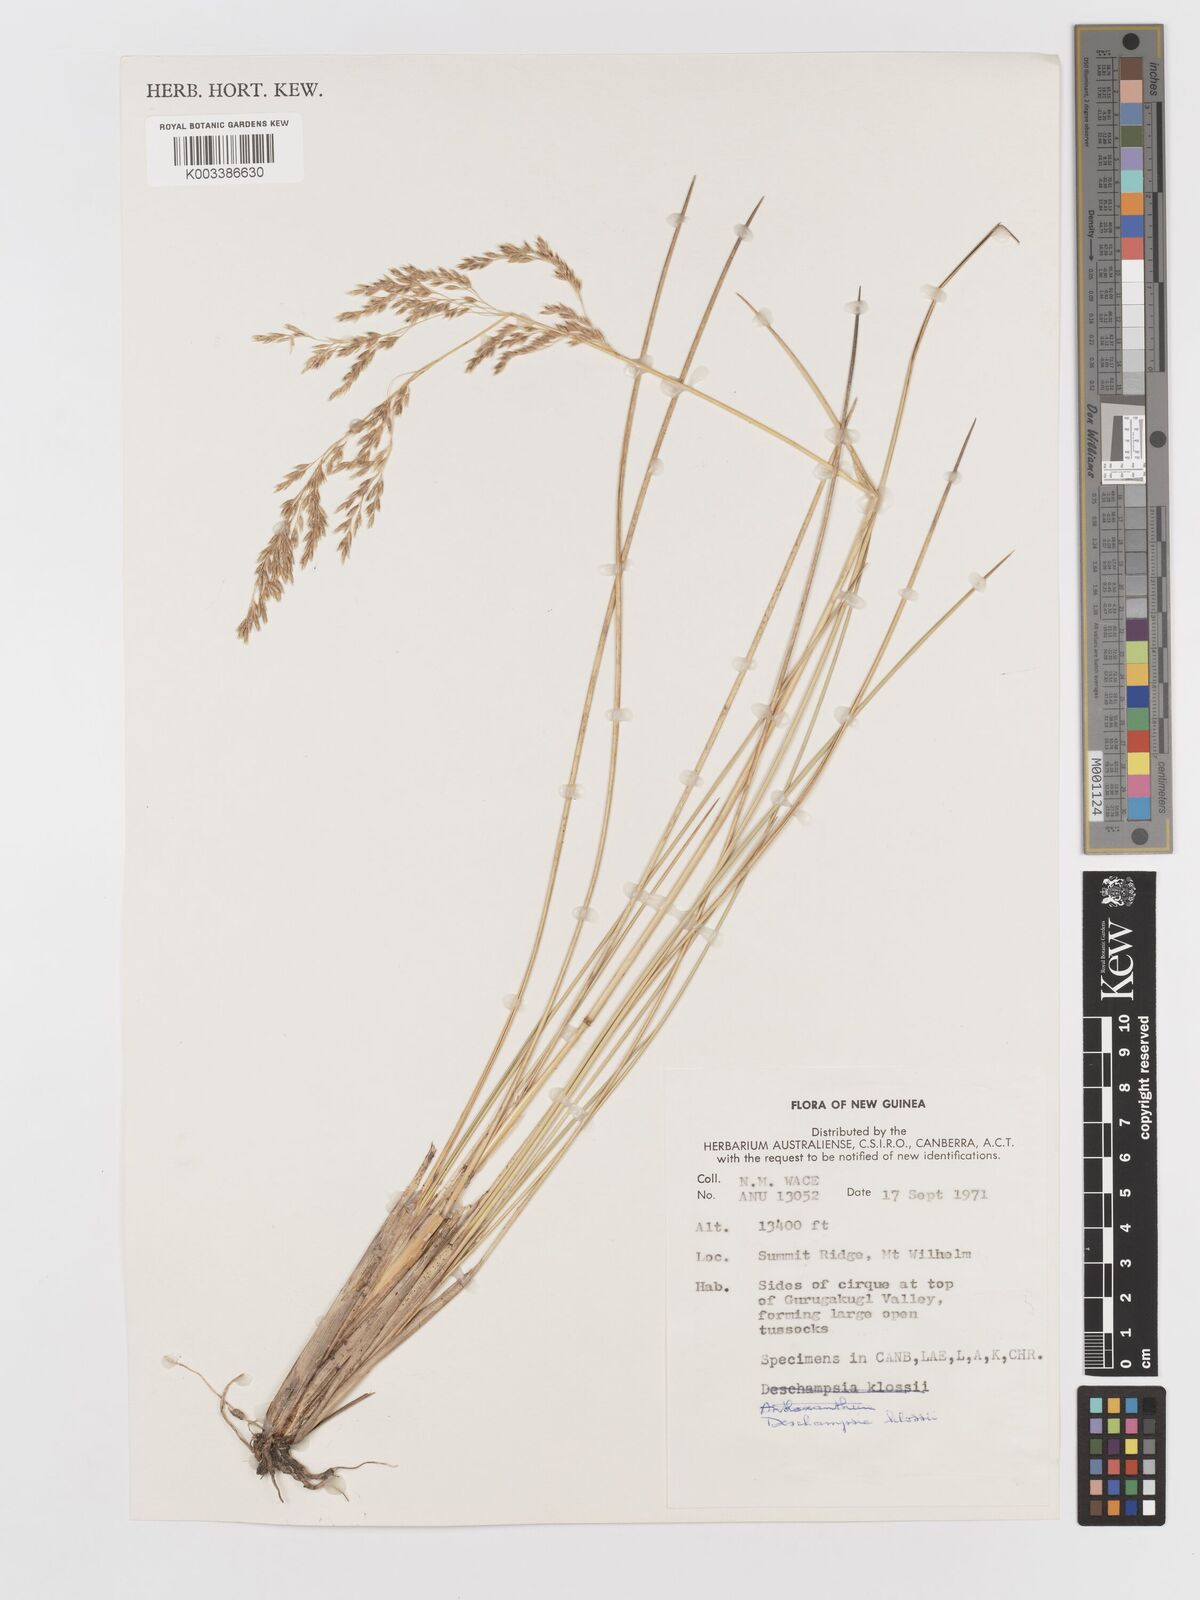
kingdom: Plantae
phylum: Tracheophyta
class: Liliopsida
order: Poales
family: Poaceae
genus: Deschampsia
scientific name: Deschampsia klossii
